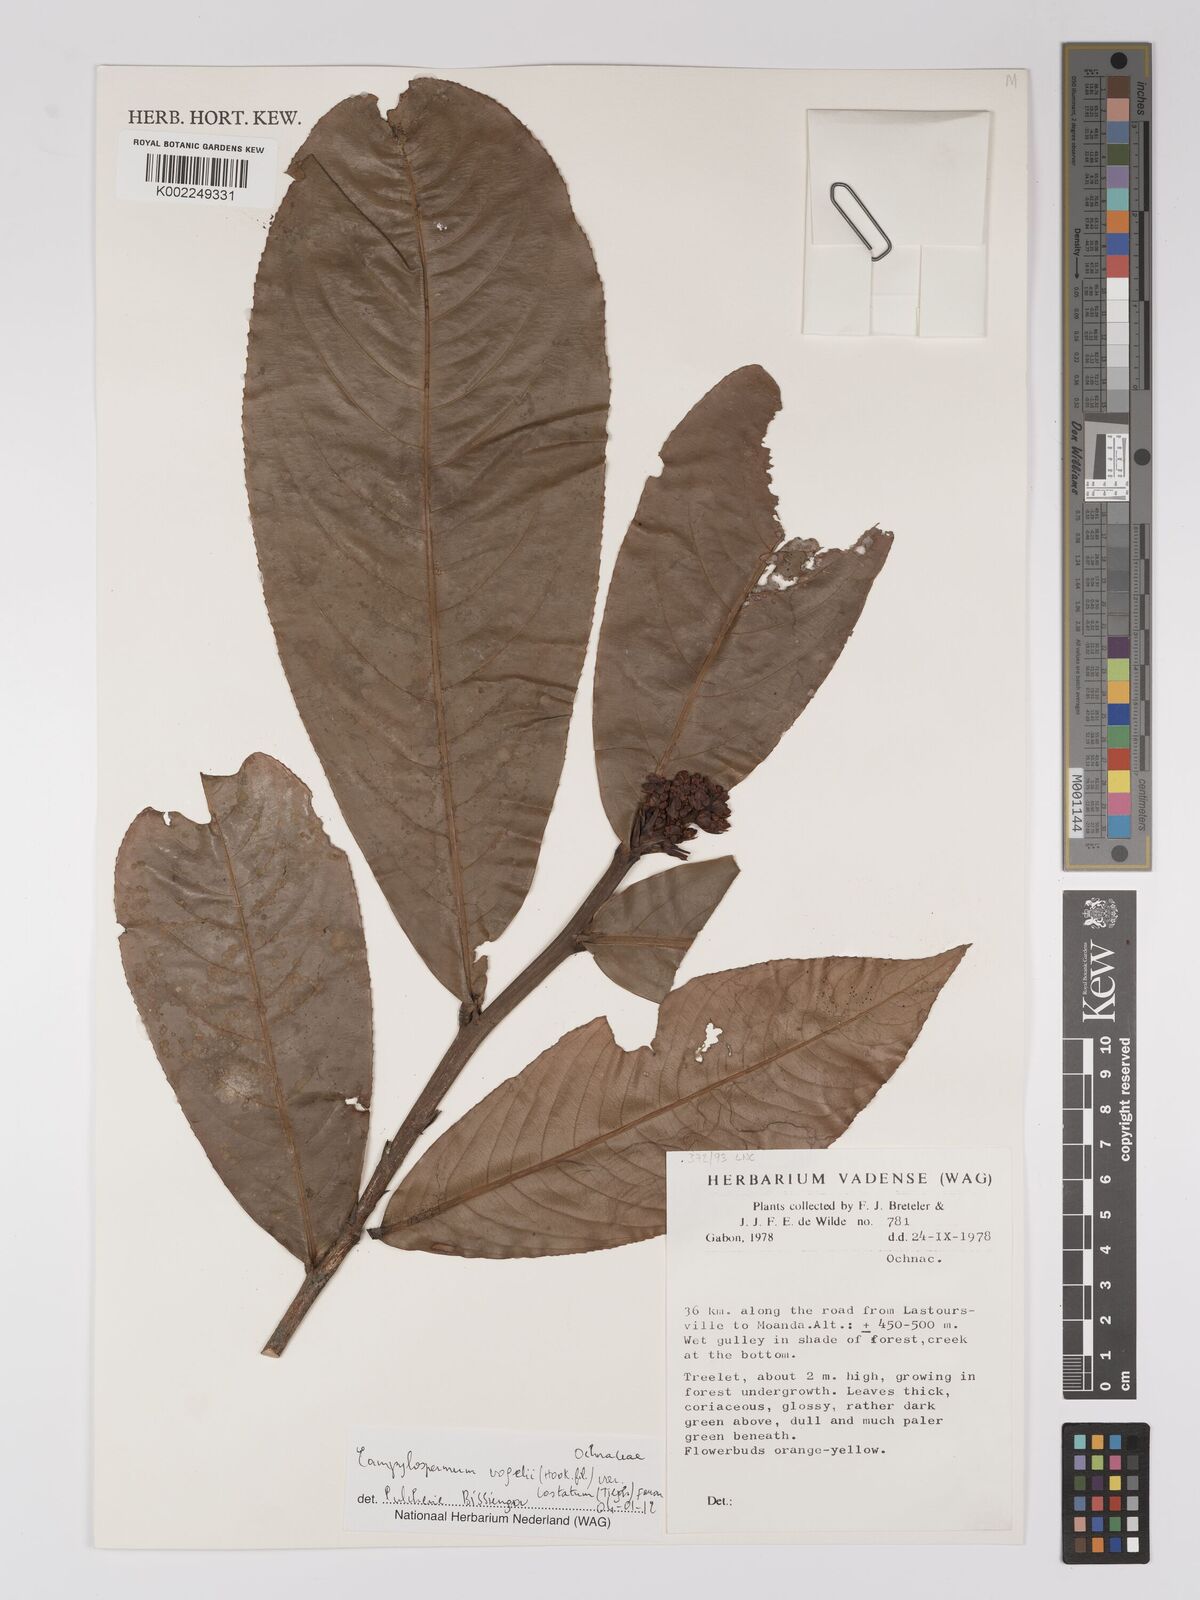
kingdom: Plantae
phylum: Tracheophyta
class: Magnoliopsida
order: Malpighiales
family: Ochnaceae
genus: Campylospermum
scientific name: Campylospermum costatum
